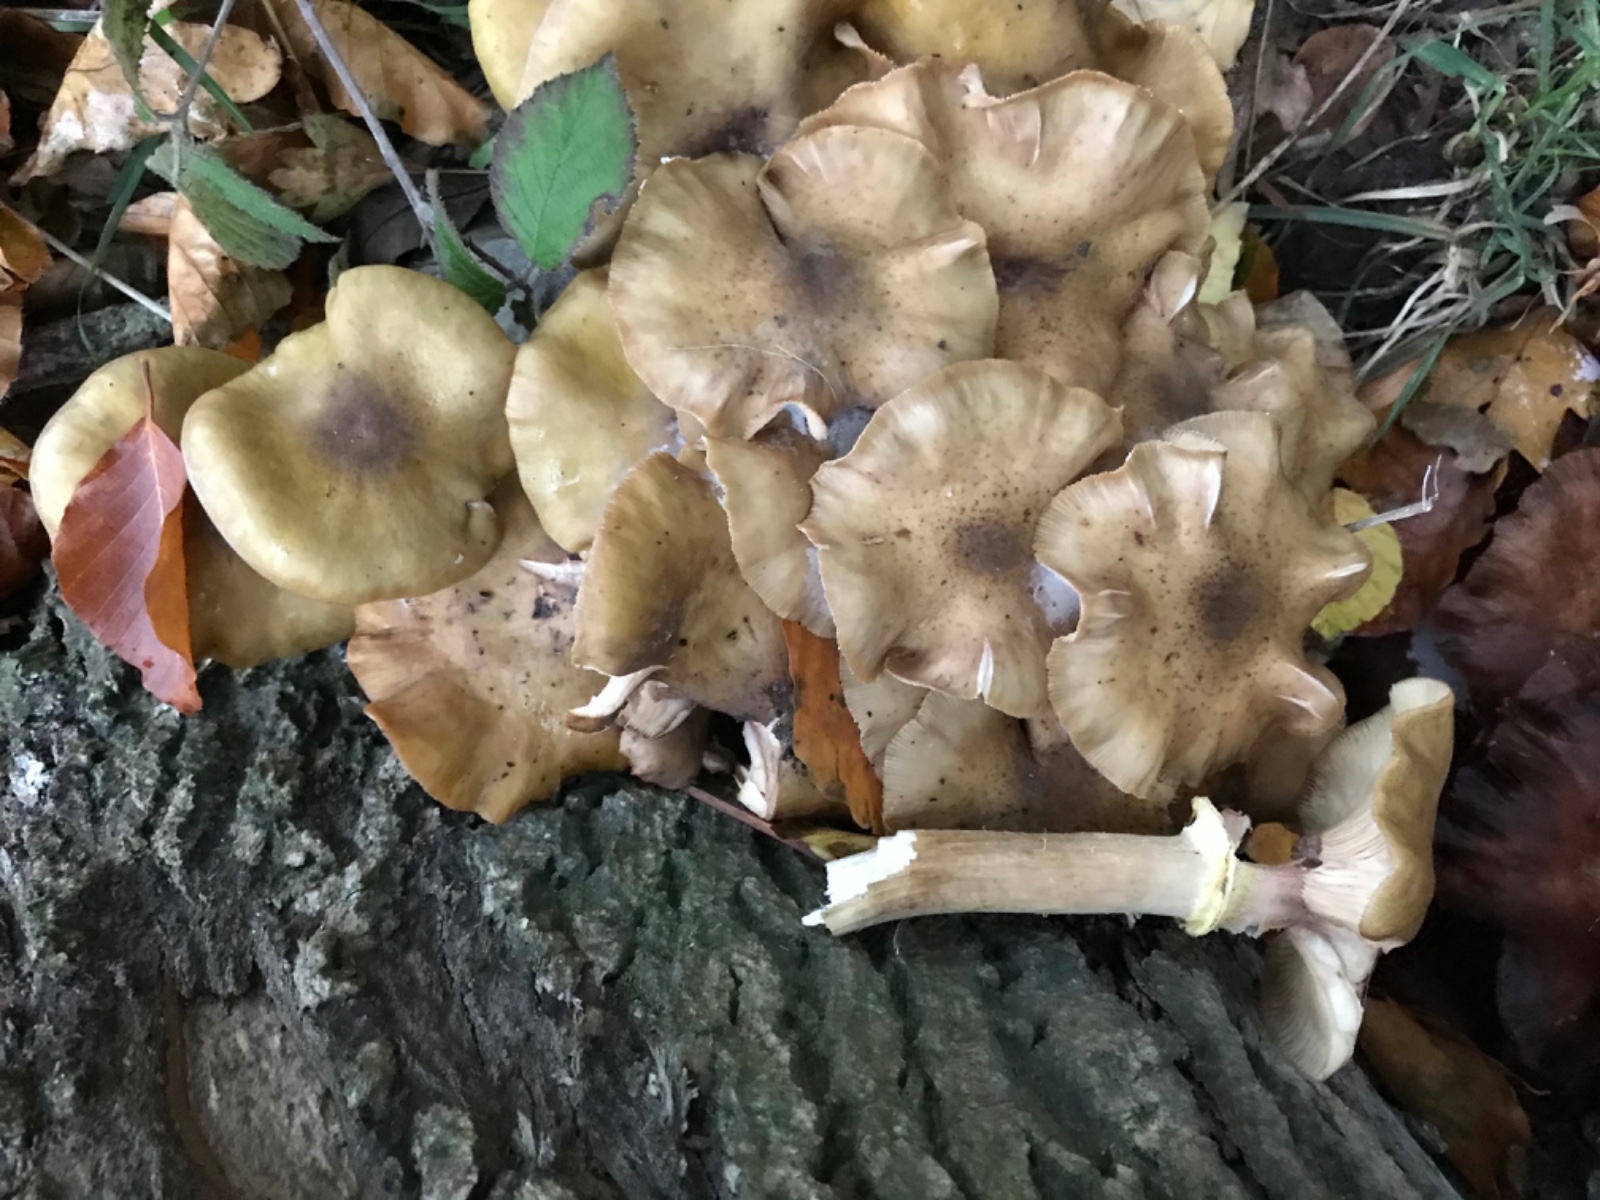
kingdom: Fungi
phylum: Basidiomycota
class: Agaricomycetes
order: Agaricales
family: Physalacriaceae
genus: Armillaria
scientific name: Armillaria mellea
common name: ægte honningsvamp
